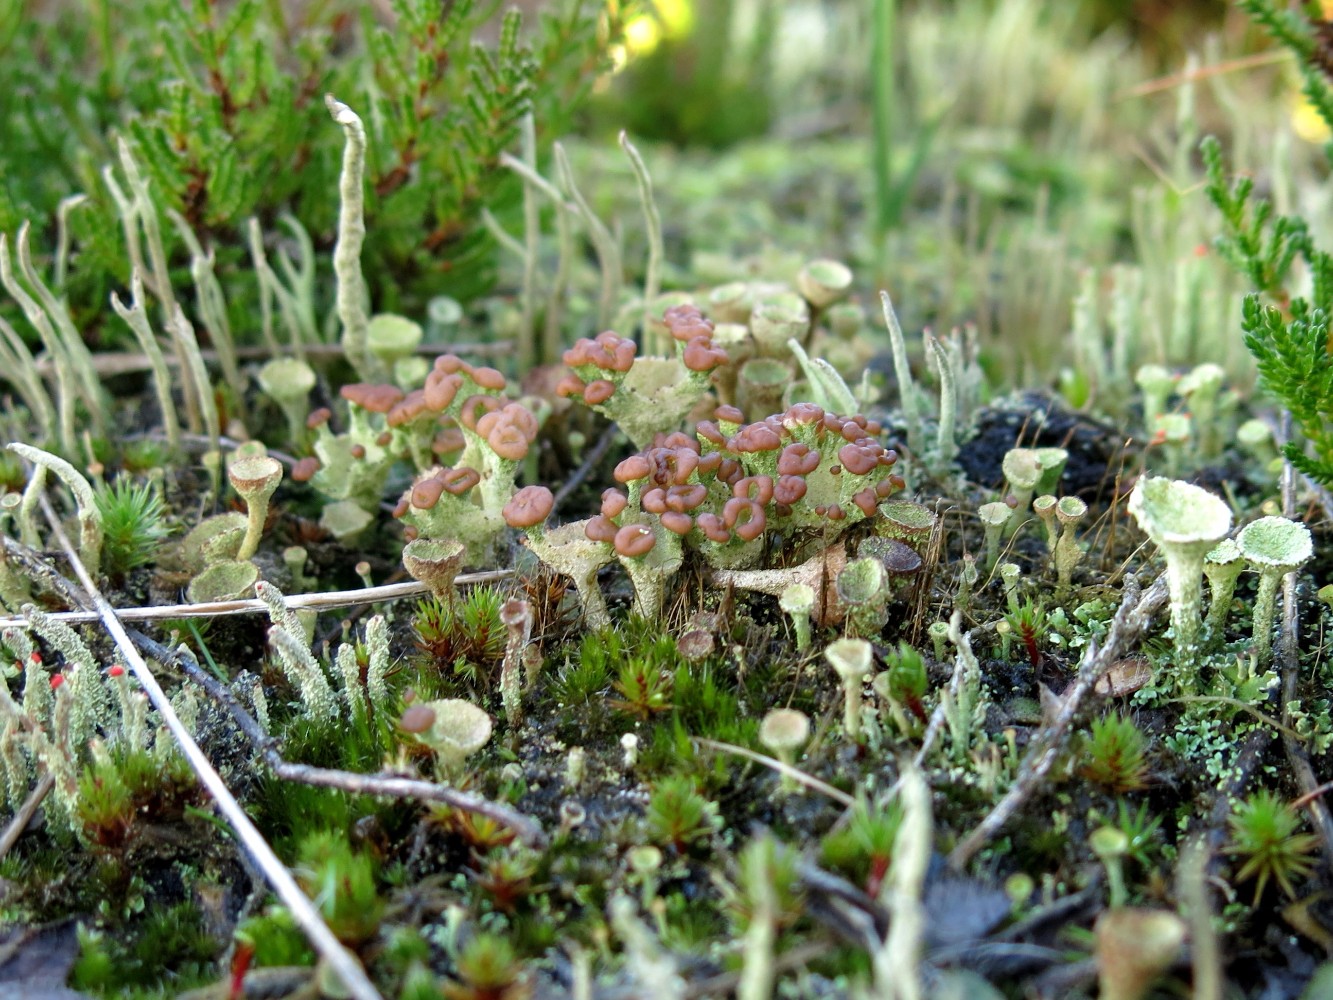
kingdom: Fungi
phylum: Ascomycota
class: Lecanoromycetes
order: Lecanorales
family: Cladoniaceae
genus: Cladonia
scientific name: Cladonia
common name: brungrøn bægerlav
